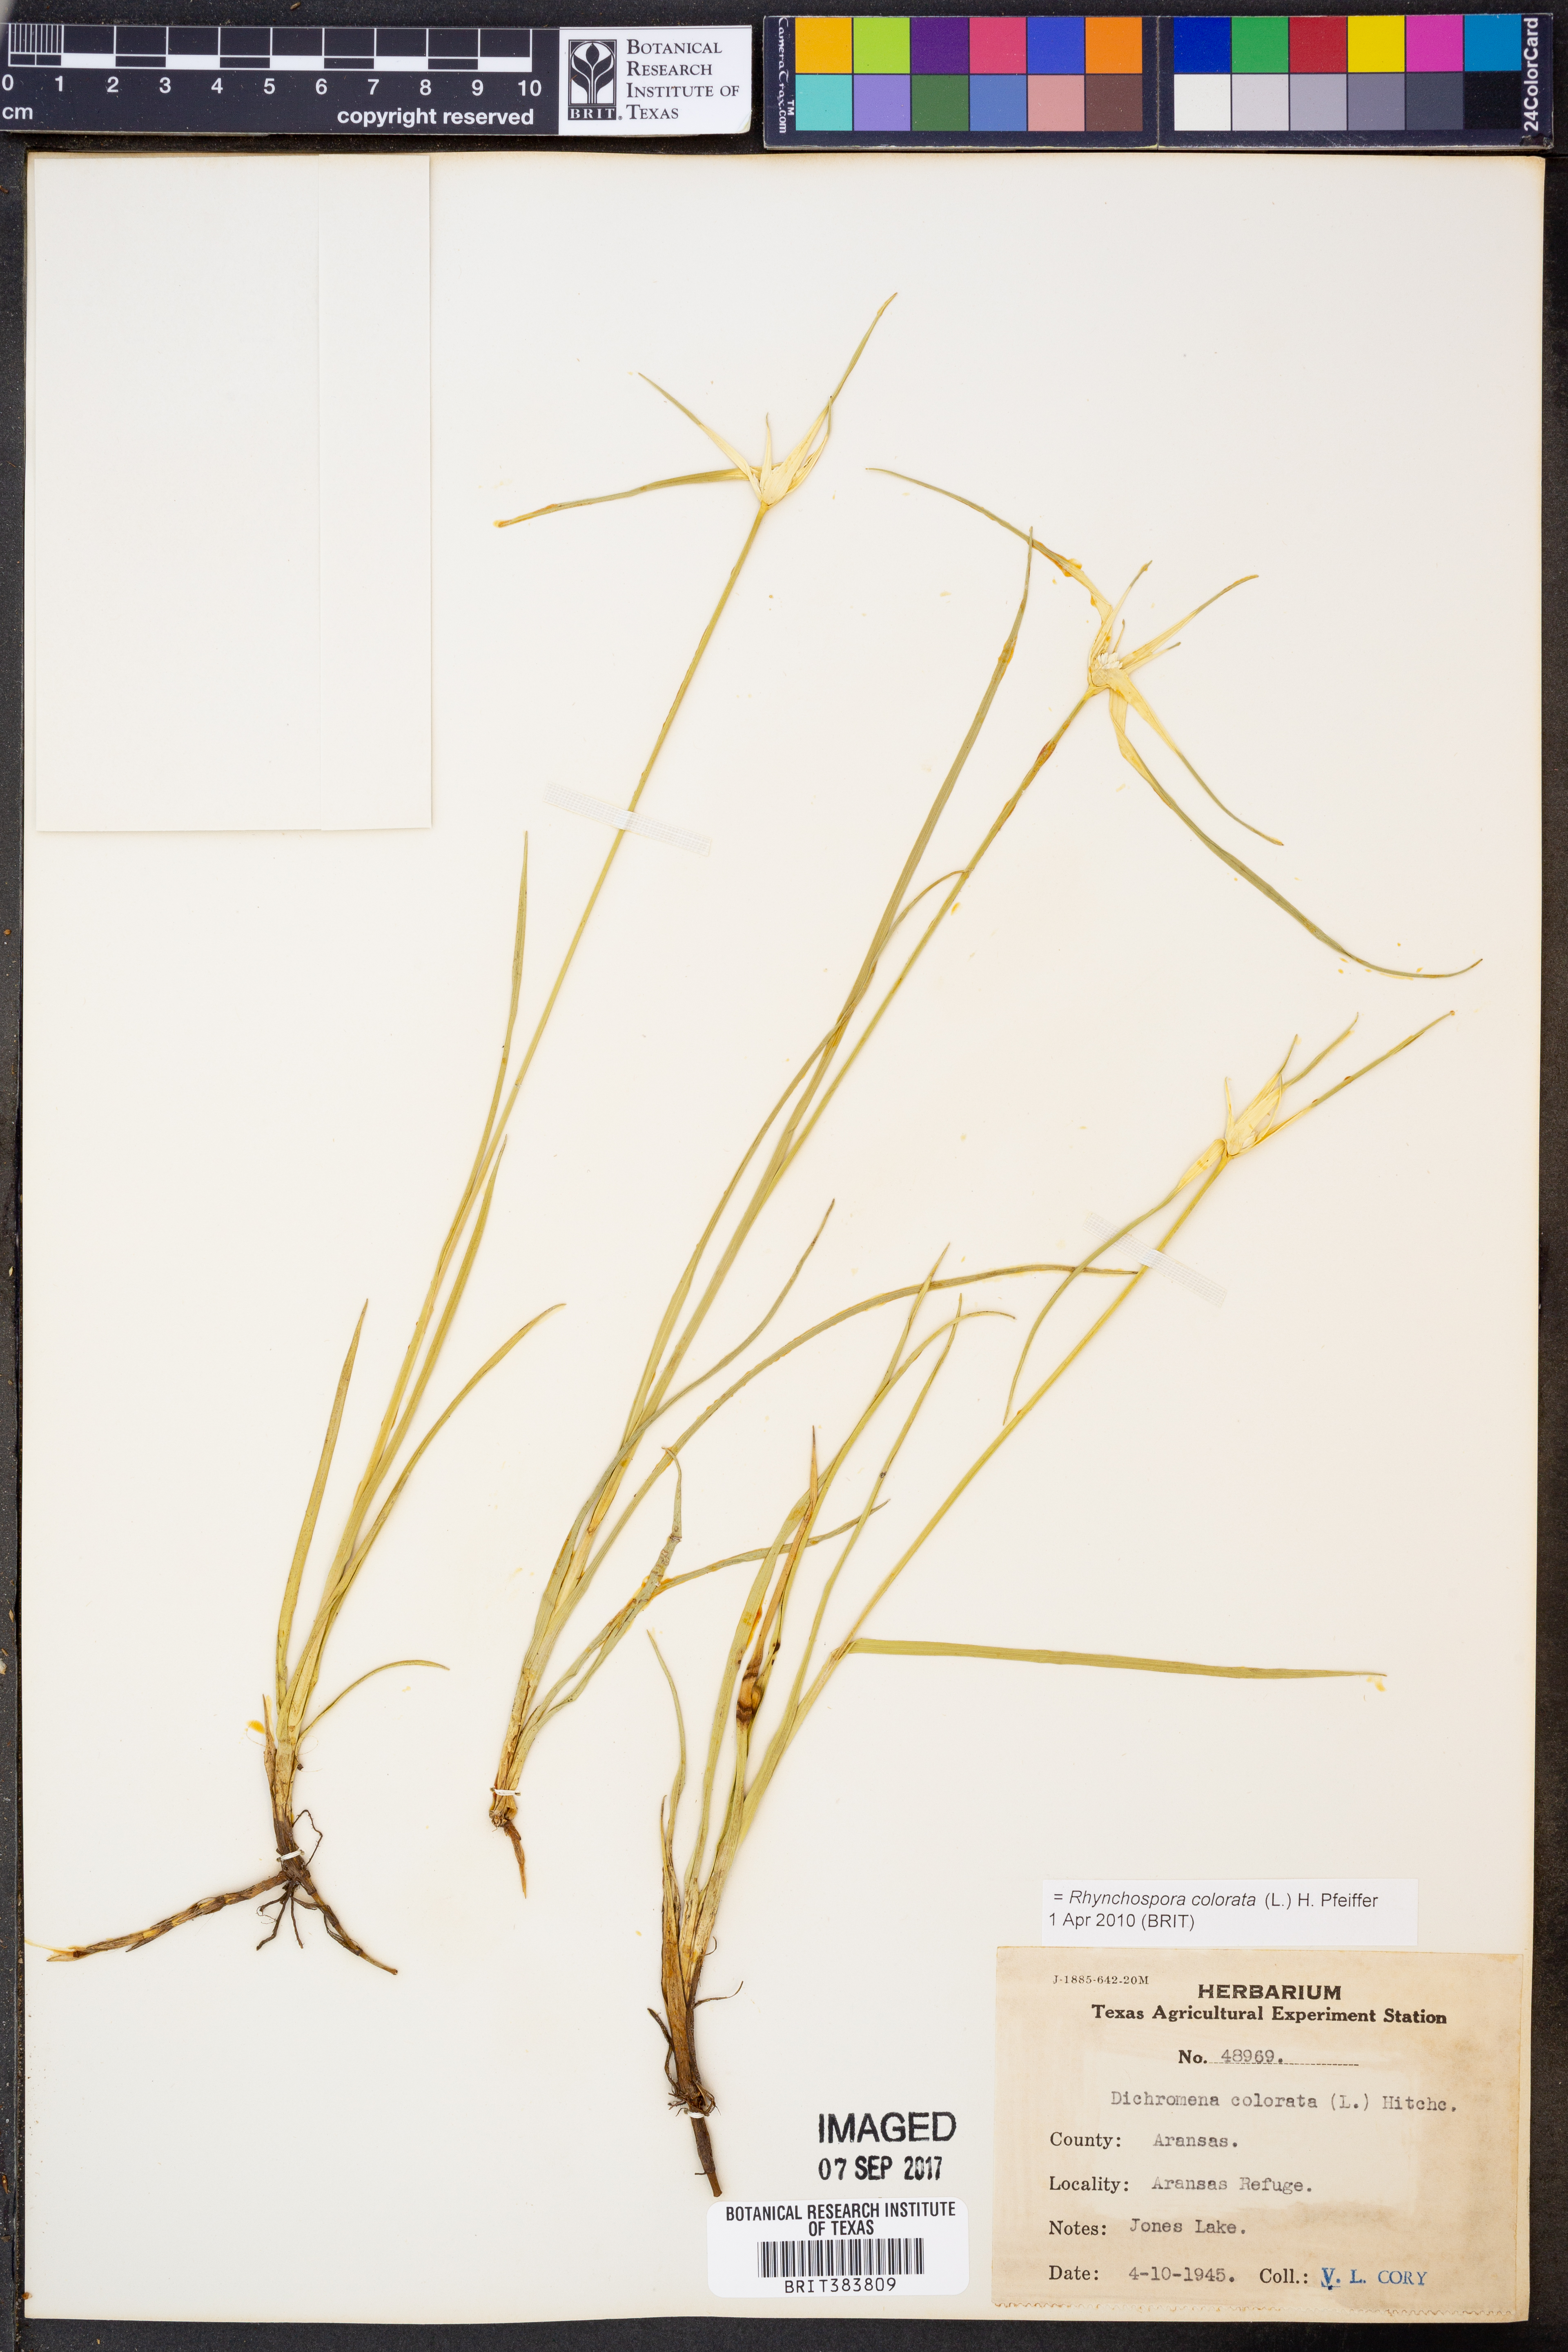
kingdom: Plantae
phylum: Tracheophyta
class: Liliopsida
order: Poales
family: Cyperaceae
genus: Rhynchospora
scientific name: Rhynchospora colorata
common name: Star sedge
